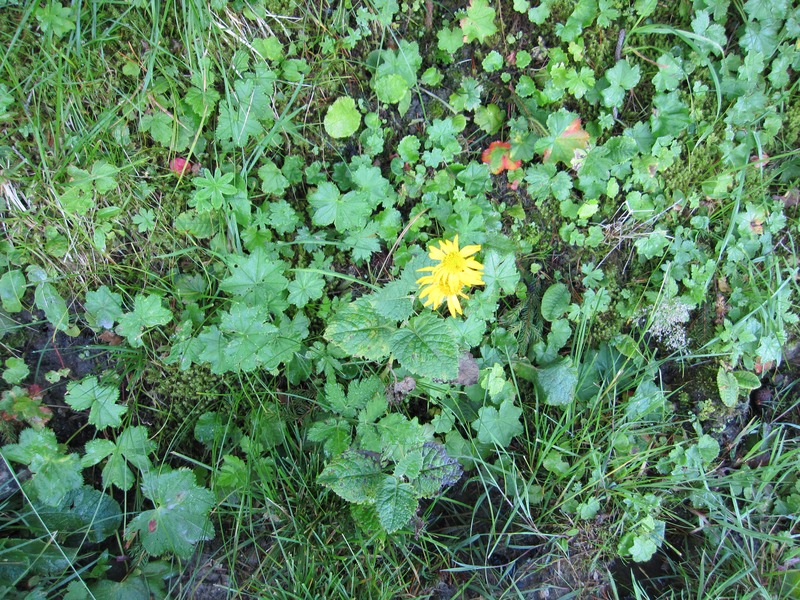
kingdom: Fungi
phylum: Basidiomycota
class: Pucciniomycetes
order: Pucciniales
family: Coleosporiaceae
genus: Coleosporium
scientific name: Coleosporium tussilaginis
